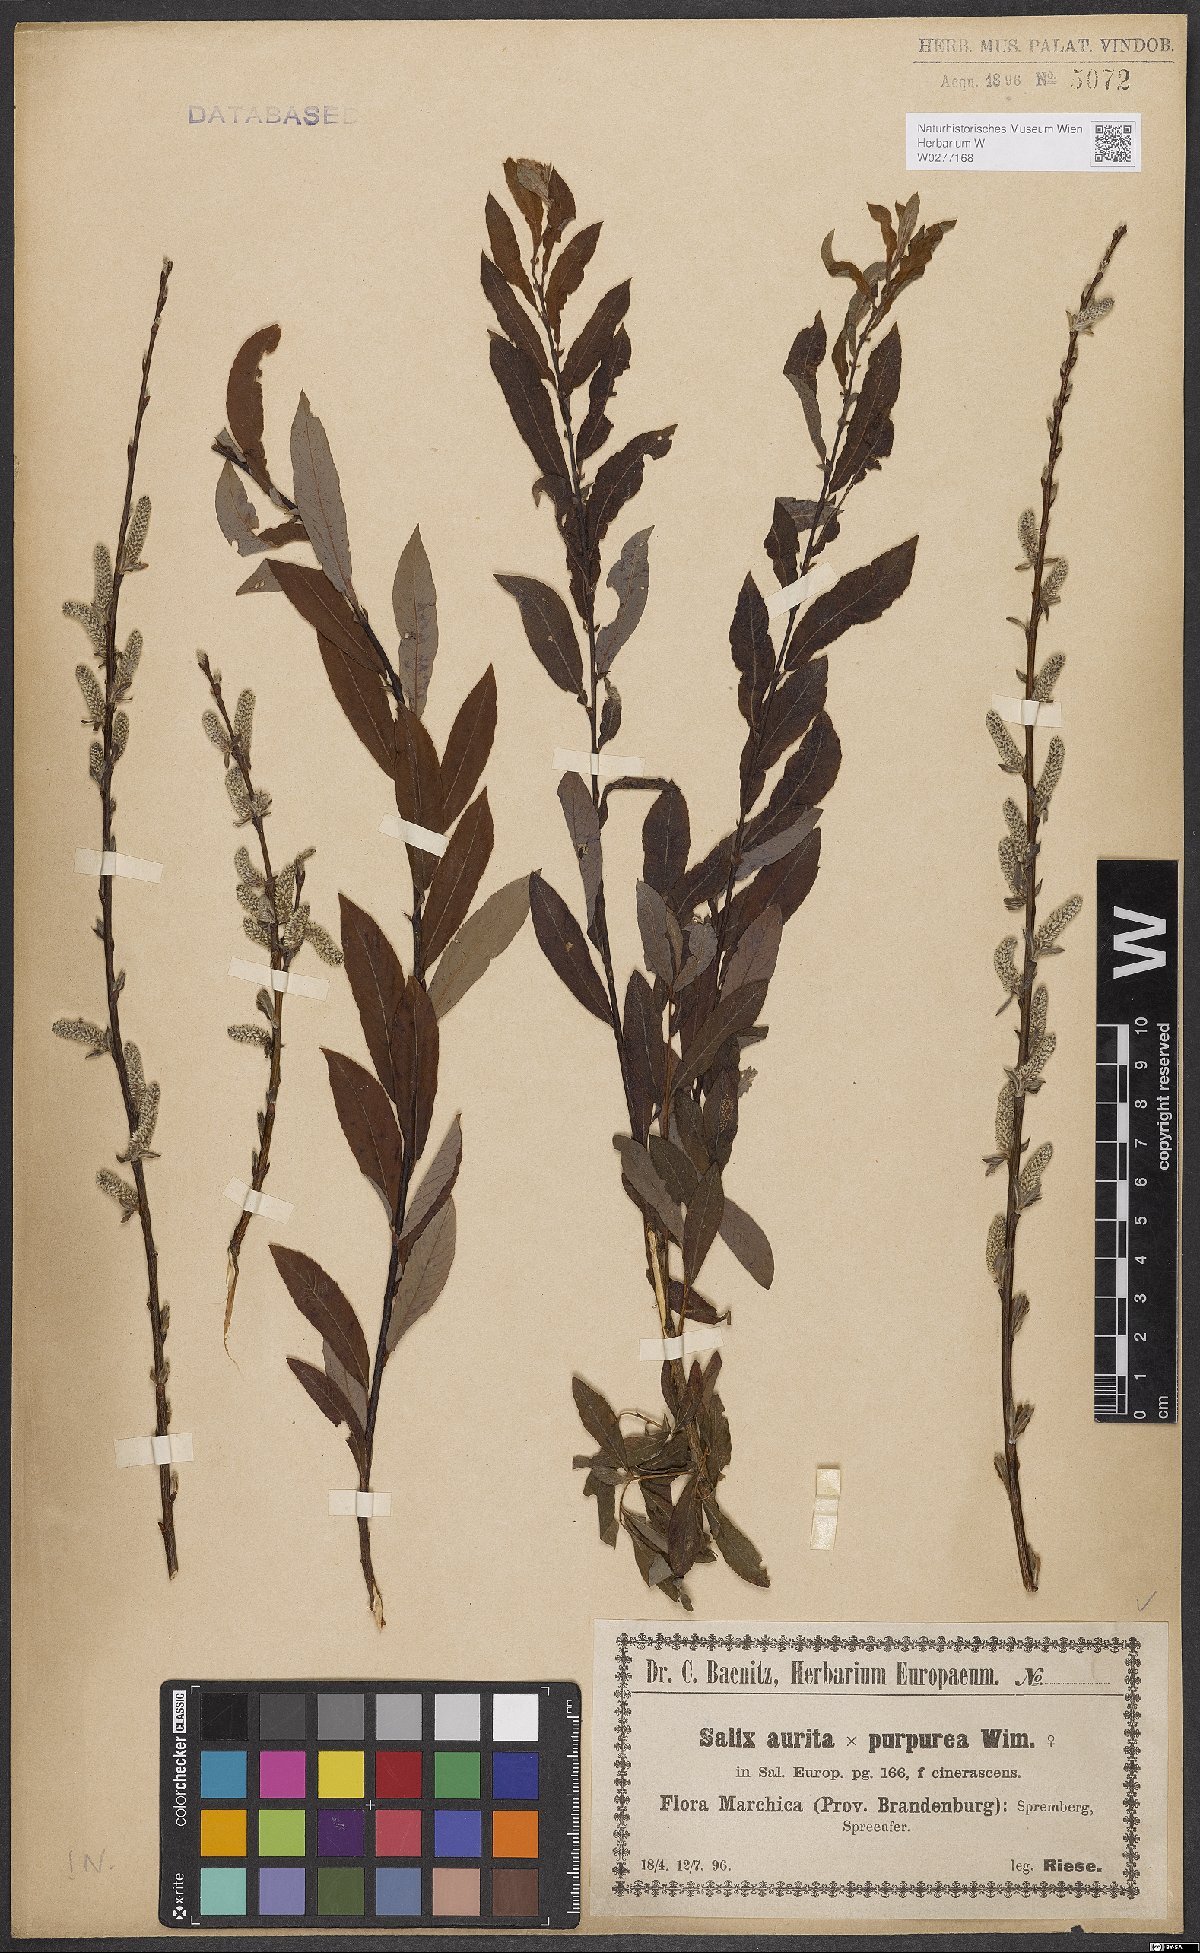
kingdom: Plantae
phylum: Tracheophyta
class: Magnoliopsida
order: Malpighiales
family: Salicaceae
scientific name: Salicaceae
